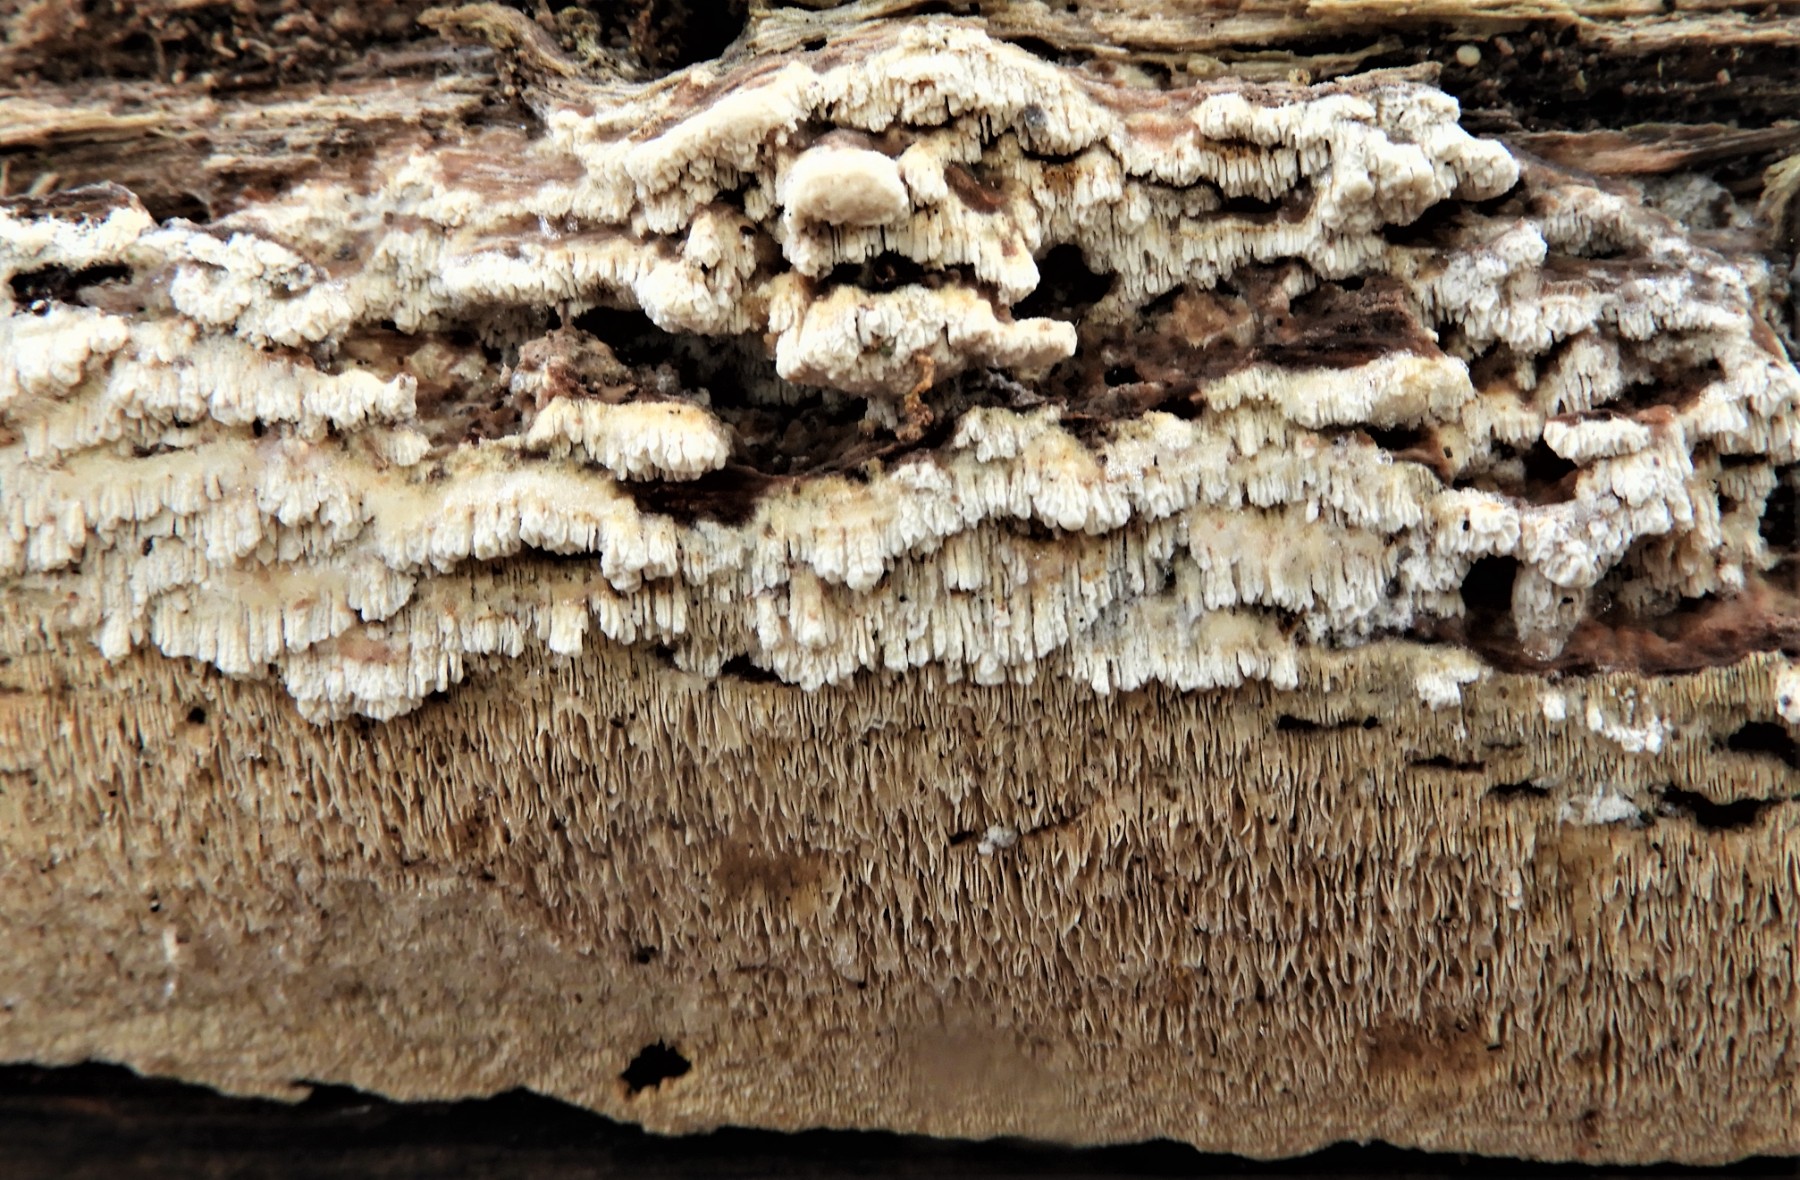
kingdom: Fungi
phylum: Basidiomycota
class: Agaricomycetes
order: Hymenochaetales
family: Schizoporaceae
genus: Schizopora
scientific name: Schizopora paradoxa
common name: hvid tandsvamp
